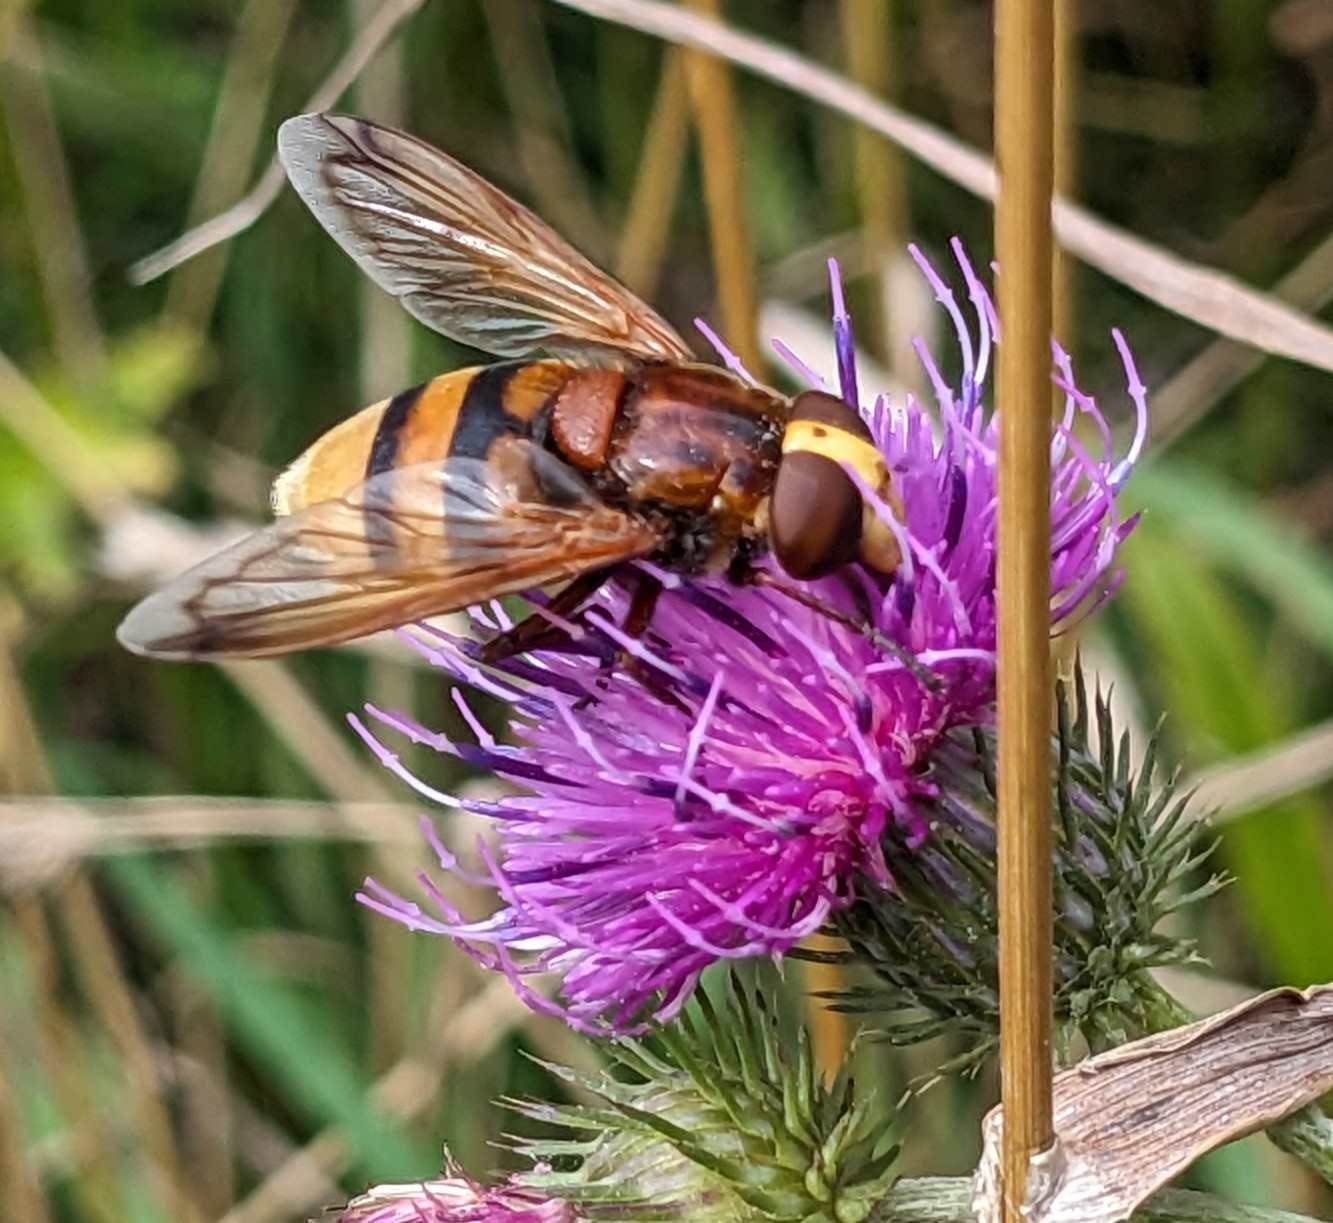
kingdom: Animalia
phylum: Arthropoda
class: Insecta
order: Diptera
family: Syrphidae
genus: Volucella
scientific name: Volucella zonaria
